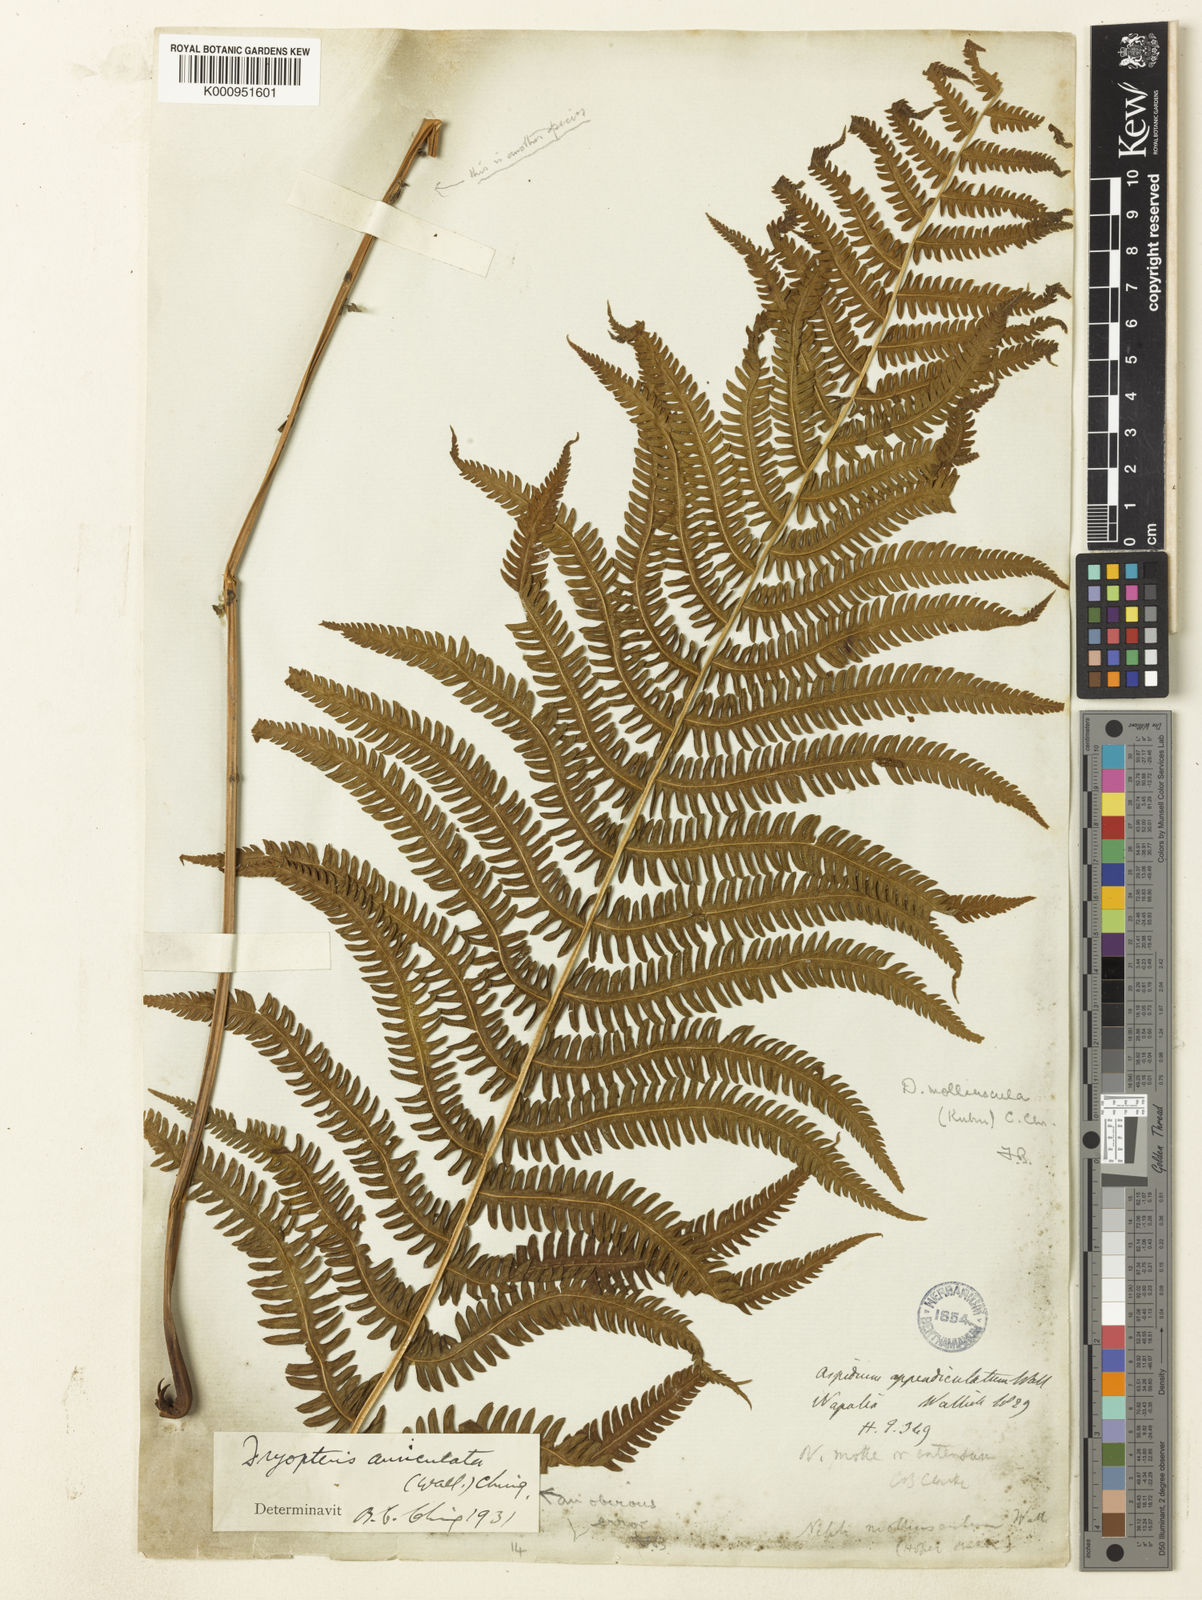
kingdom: Plantae
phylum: Tracheophyta
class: Polypodiopsida
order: Polypodiales
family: Thelypteridaceae
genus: Christella
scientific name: Christella procera
